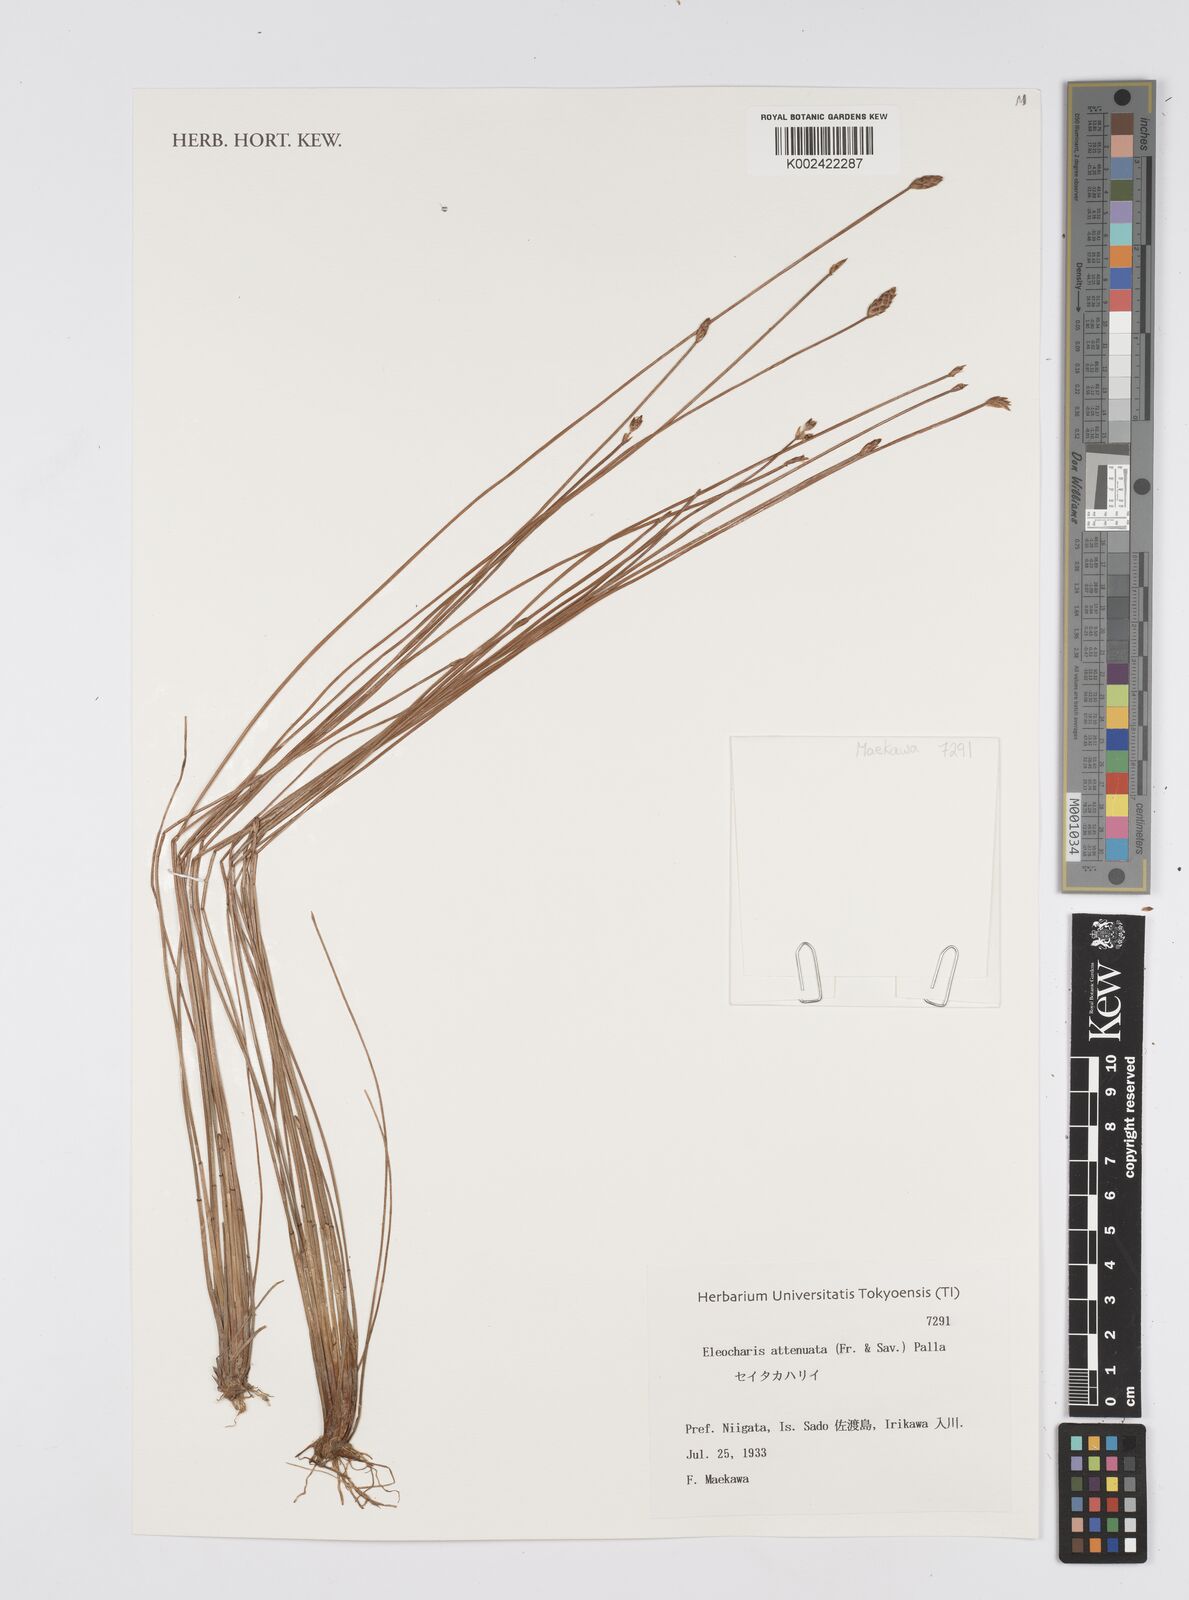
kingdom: Plantae
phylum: Tracheophyta
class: Liliopsida
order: Poales
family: Cyperaceae
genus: Eleocharis
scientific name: Eleocharis attenuata
